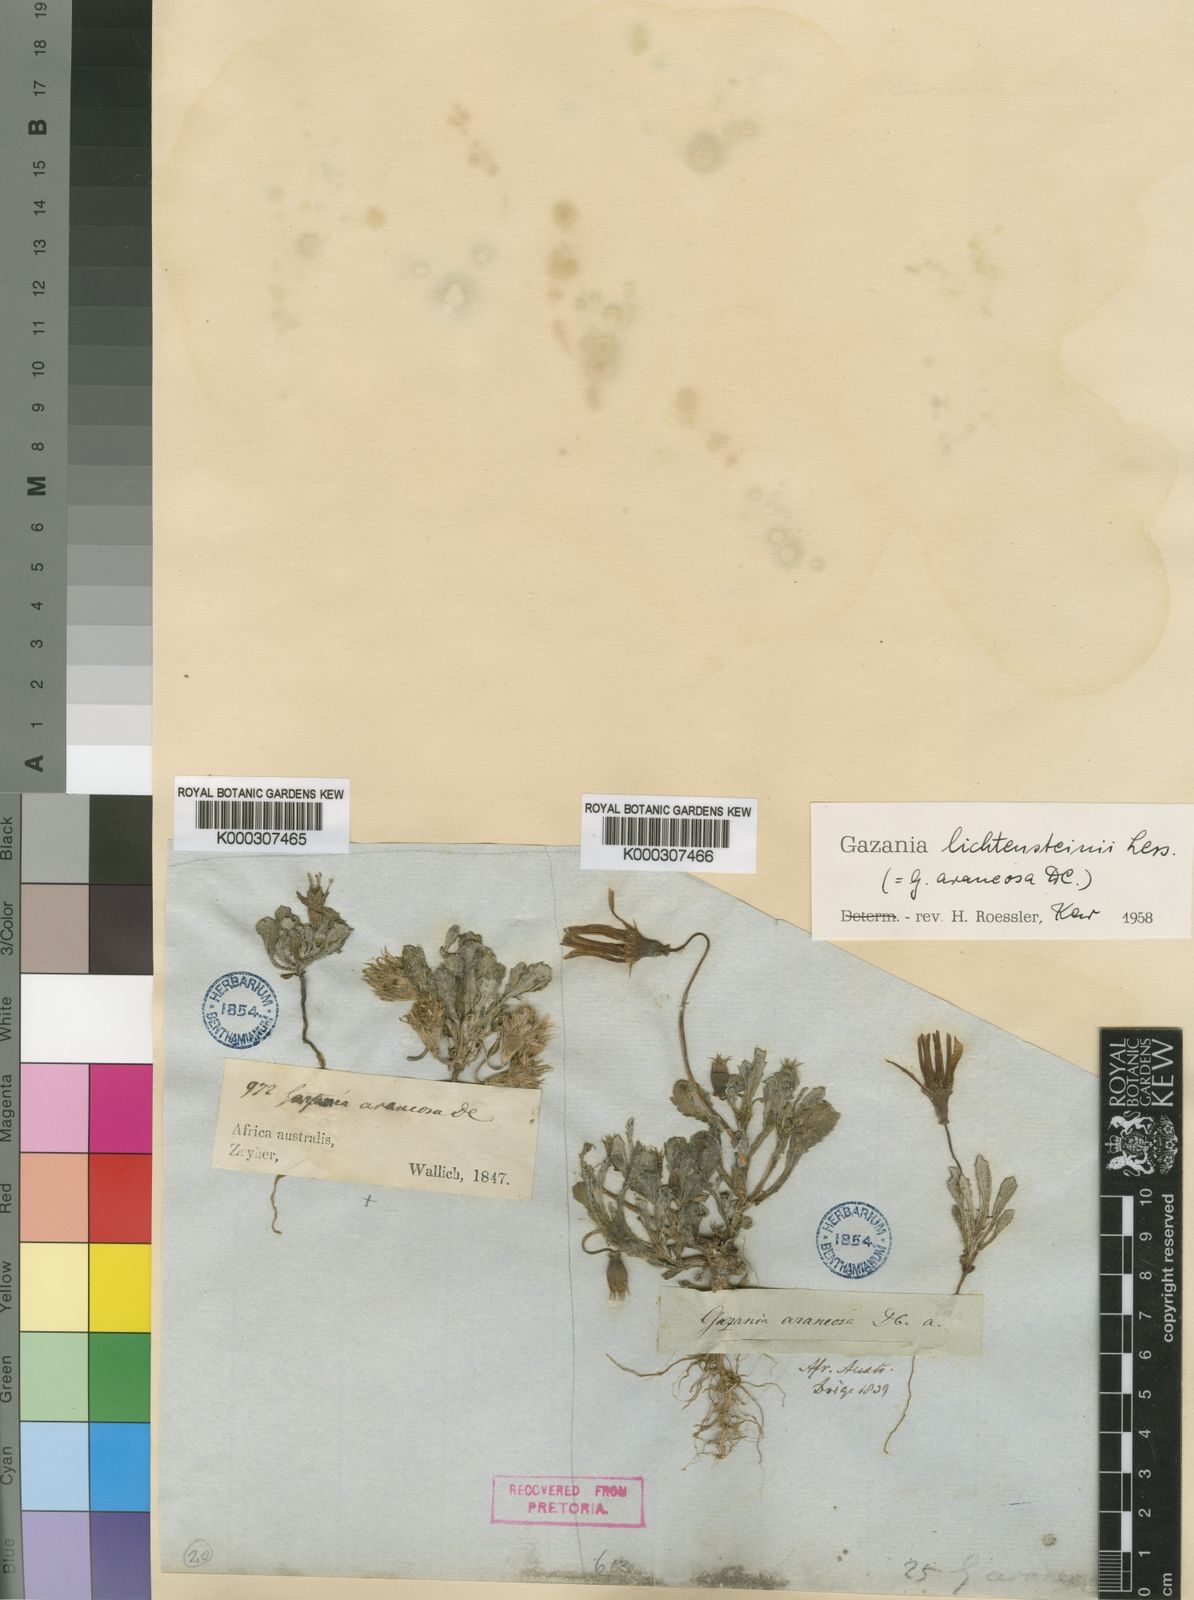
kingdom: Plantae
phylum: Tracheophyta
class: Magnoliopsida
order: Asterales
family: Asteraceae
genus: Gazania
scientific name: Gazania lichtensteinii
